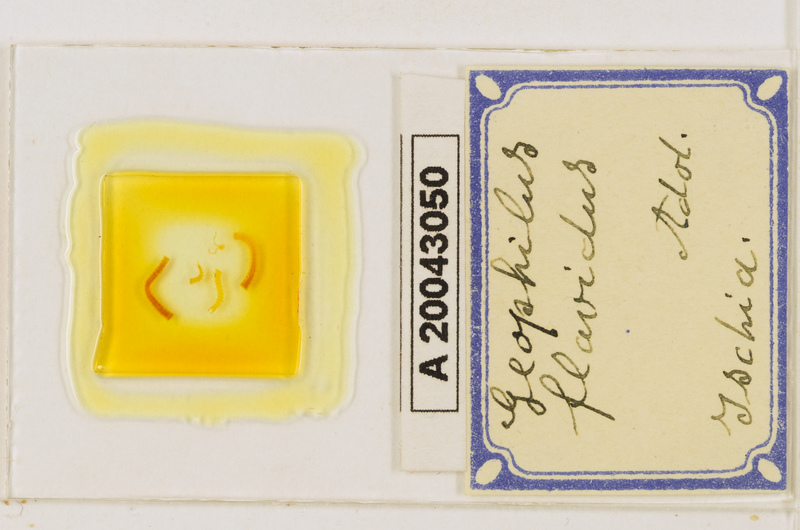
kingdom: Animalia
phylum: Arthropoda
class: Chilopoda
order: Geophilomorpha
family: Geophilidae
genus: Clinopodes
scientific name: Clinopodes flavidus
